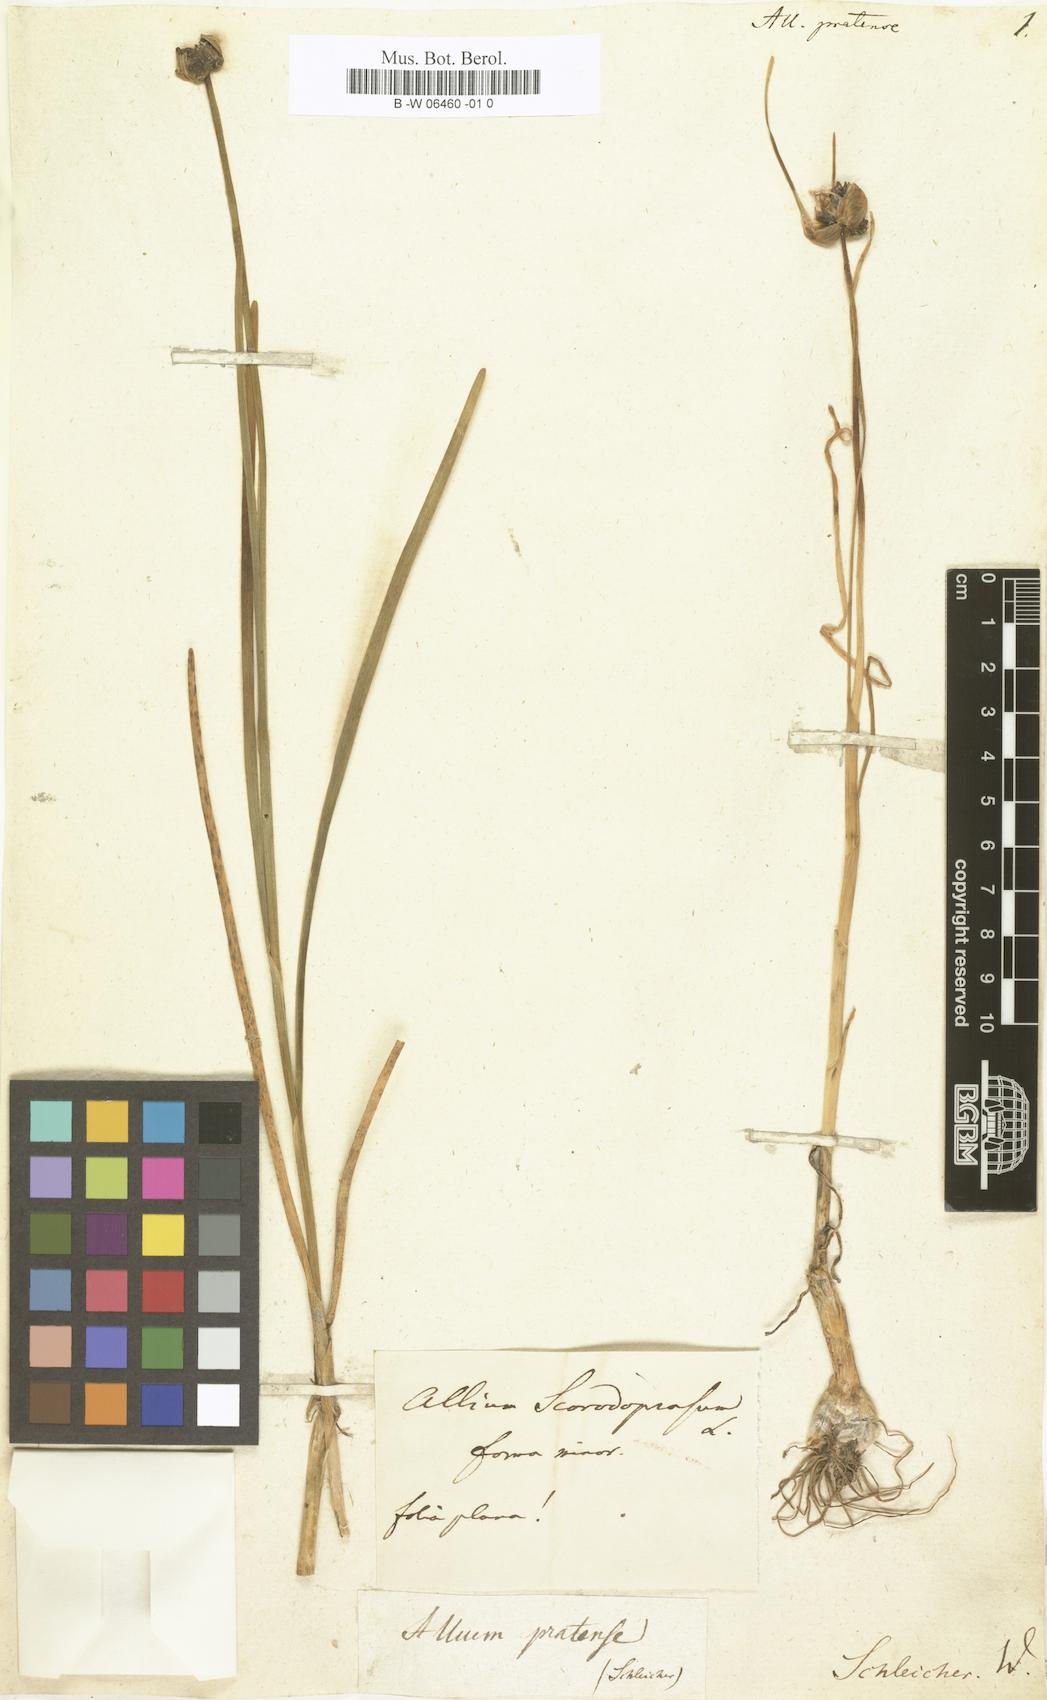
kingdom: Plantae
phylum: Tracheophyta
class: Liliopsida
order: Asparagales
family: Amaryllidaceae
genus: Allium
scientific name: Allium
